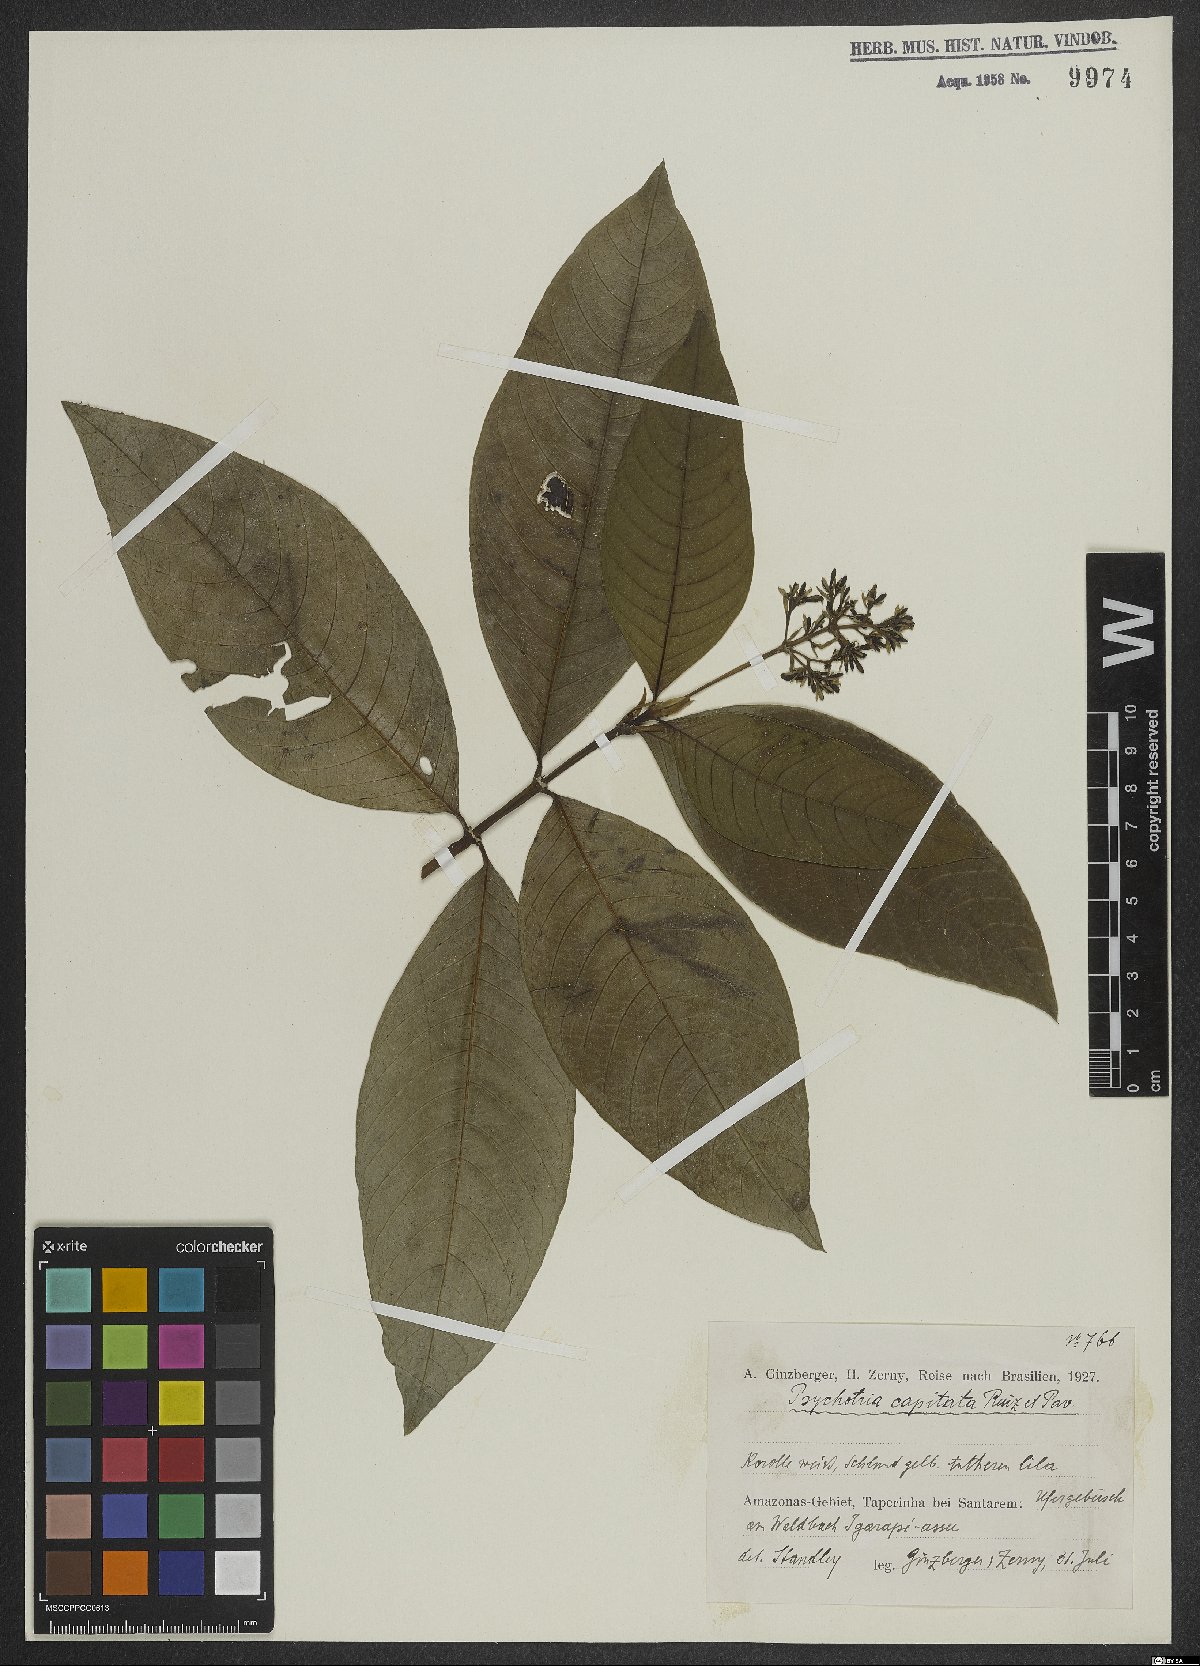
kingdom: Plantae
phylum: Tracheophyta
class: Magnoliopsida
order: Gentianales
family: Rubiaceae
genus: Palicourea
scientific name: Palicourea violacea
